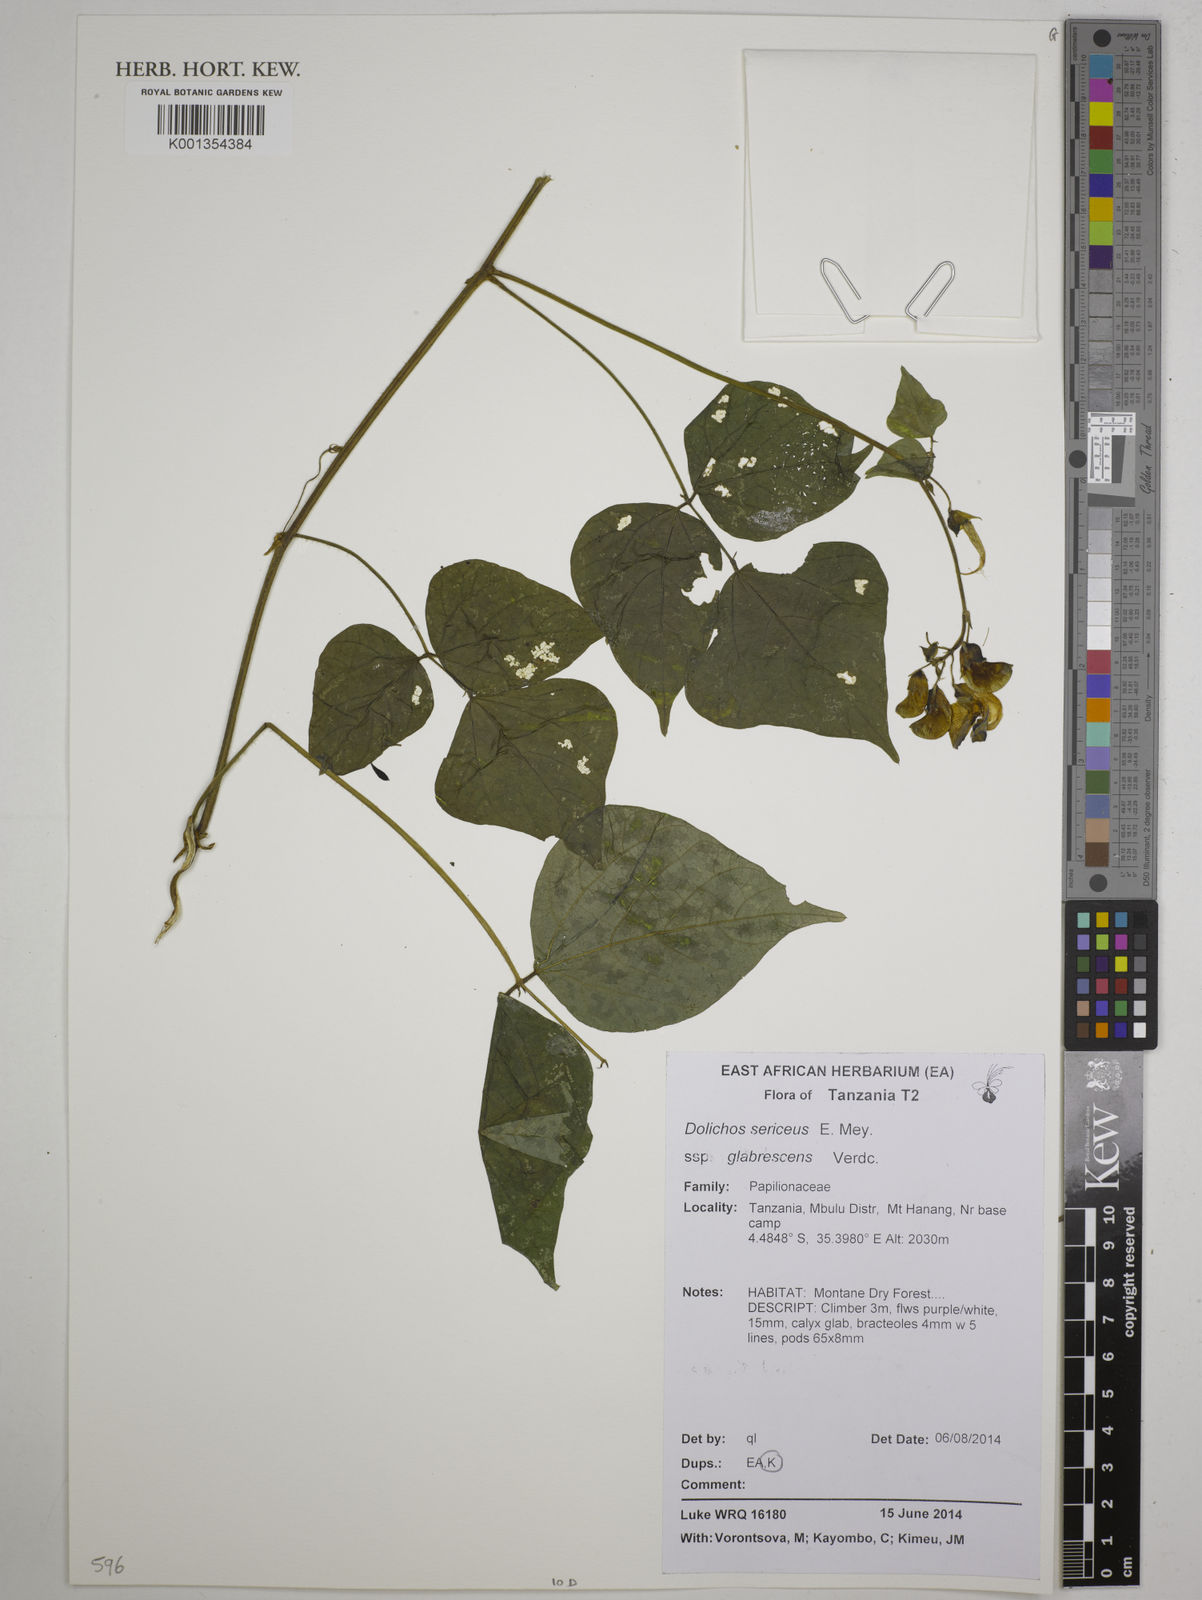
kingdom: Plantae
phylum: Tracheophyta
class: Magnoliopsida
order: Fabales
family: Fabaceae
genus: Dolichos
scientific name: Dolichos sericeus
